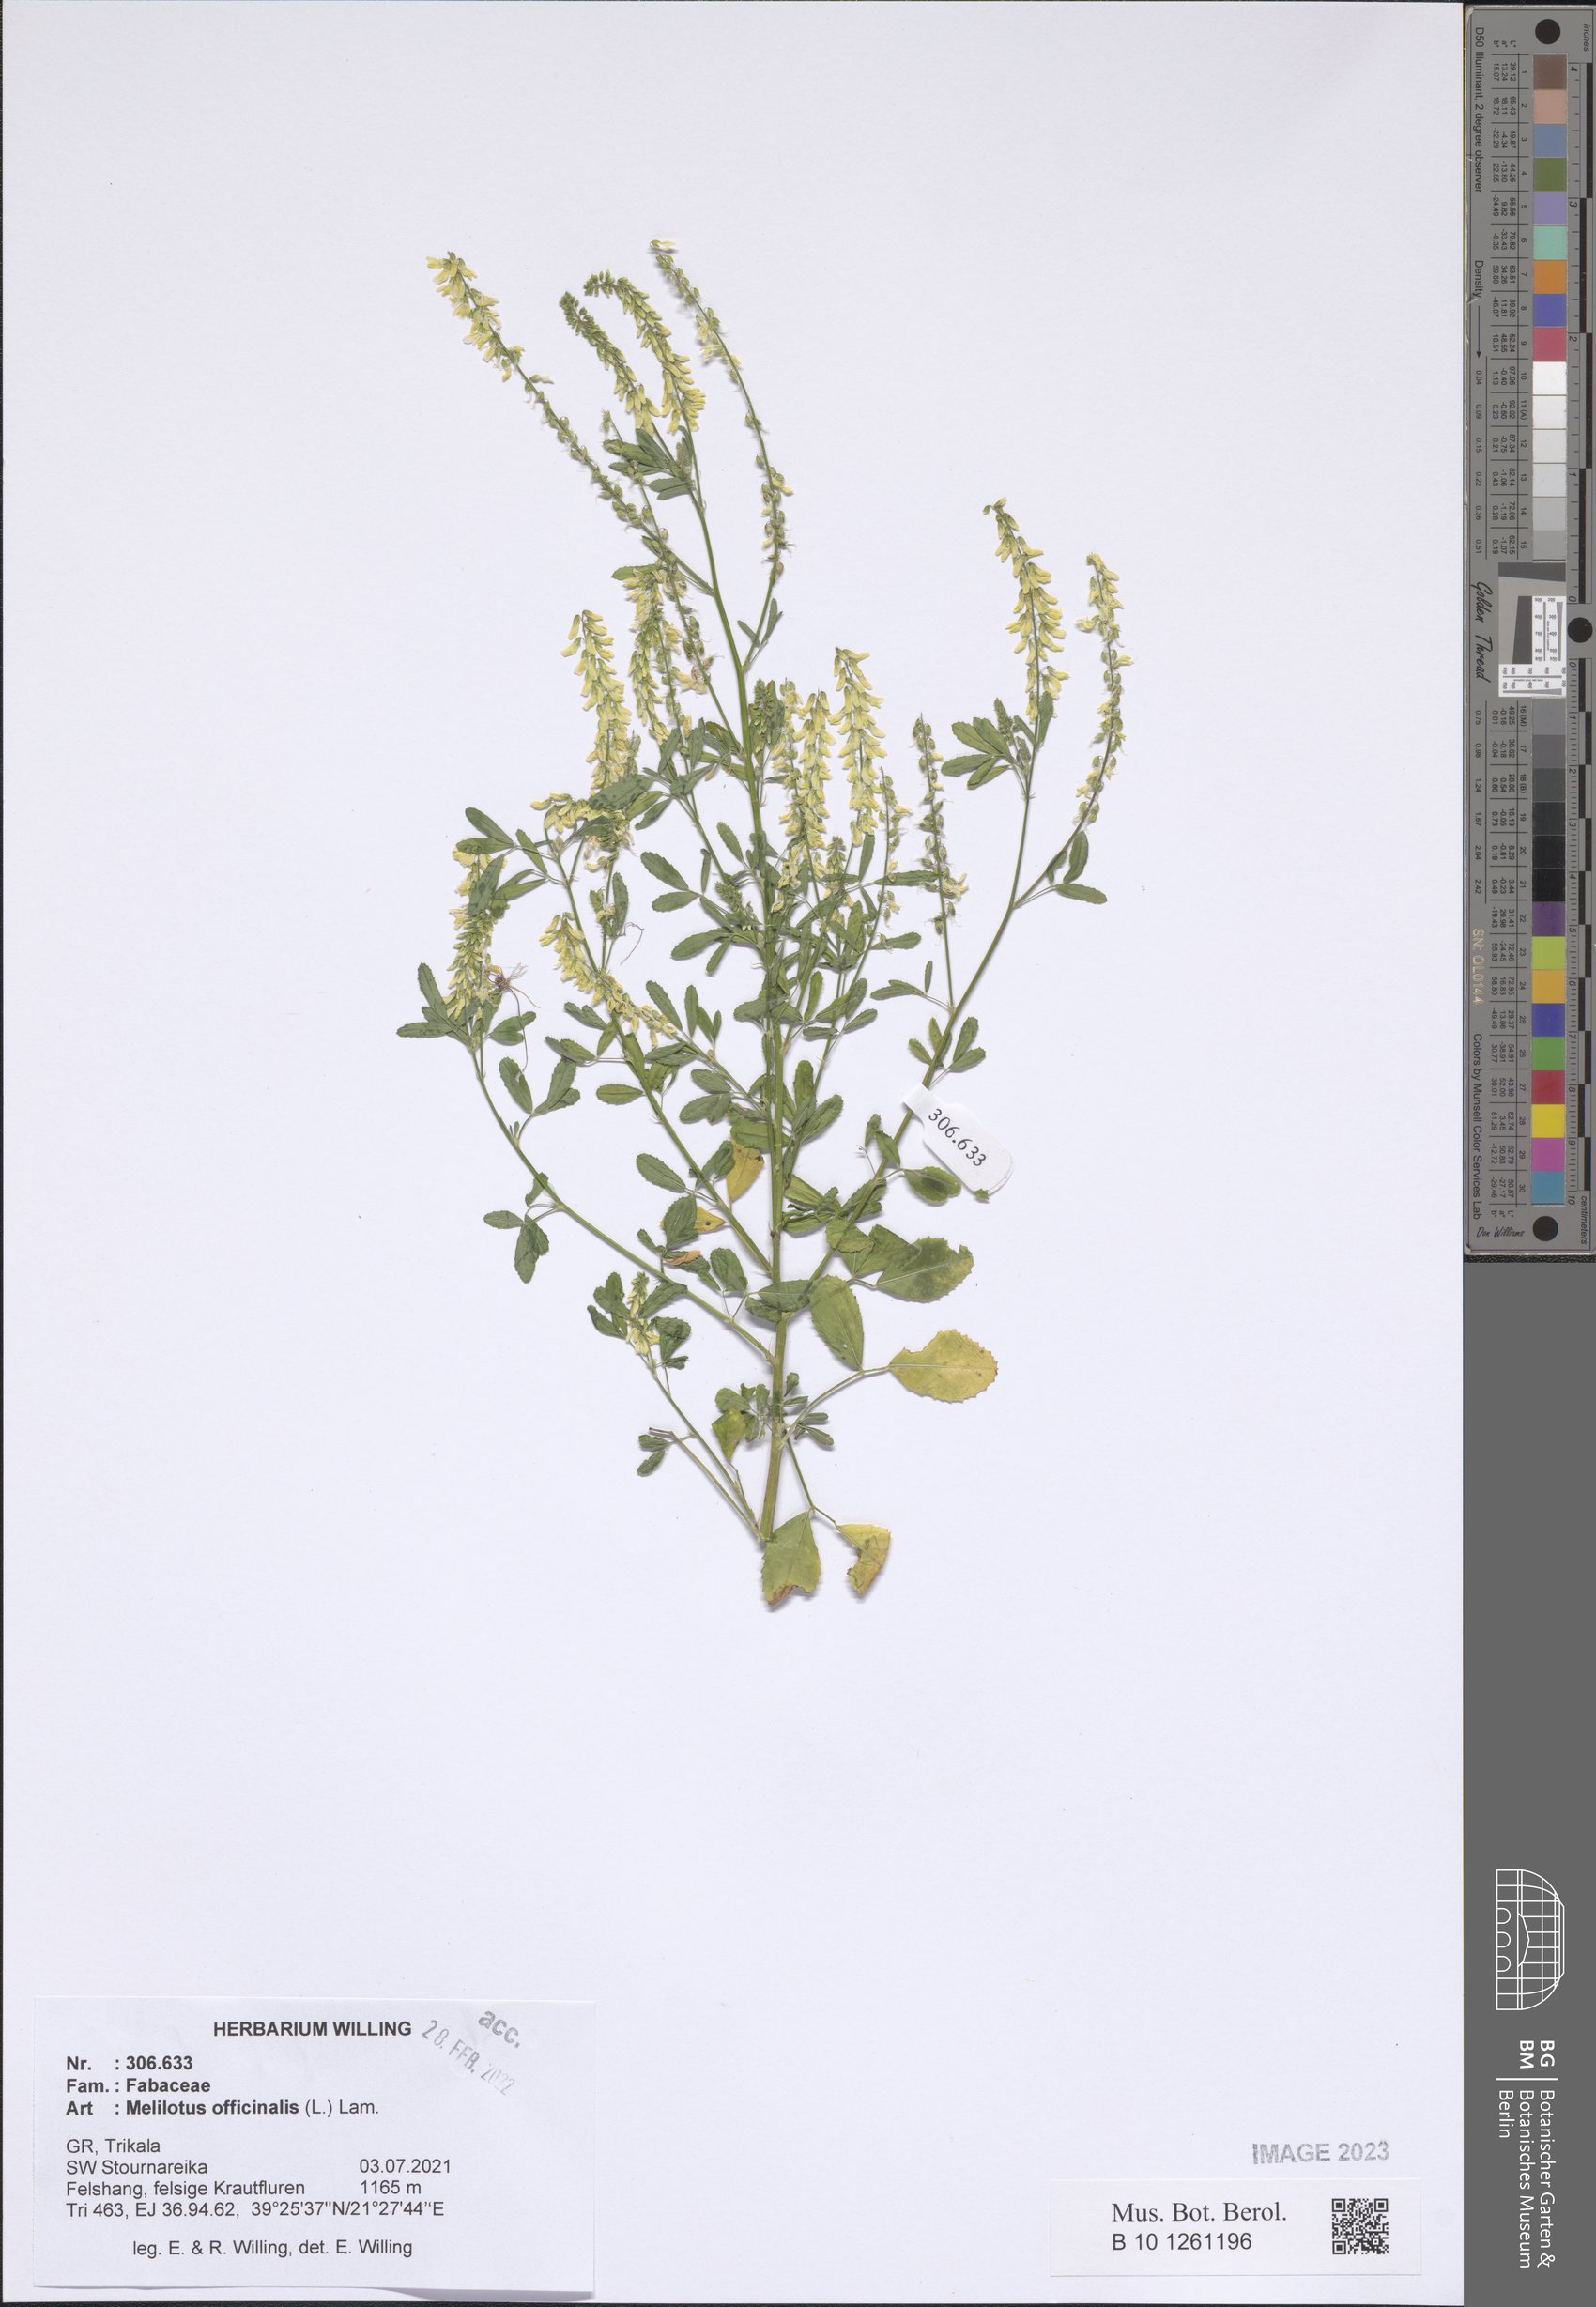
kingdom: Plantae
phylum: Tracheophyta
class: Magnoliopsida
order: Fabales
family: Fabaceae
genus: Melilotus
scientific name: Melilotus officinalis
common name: Sweetclover
